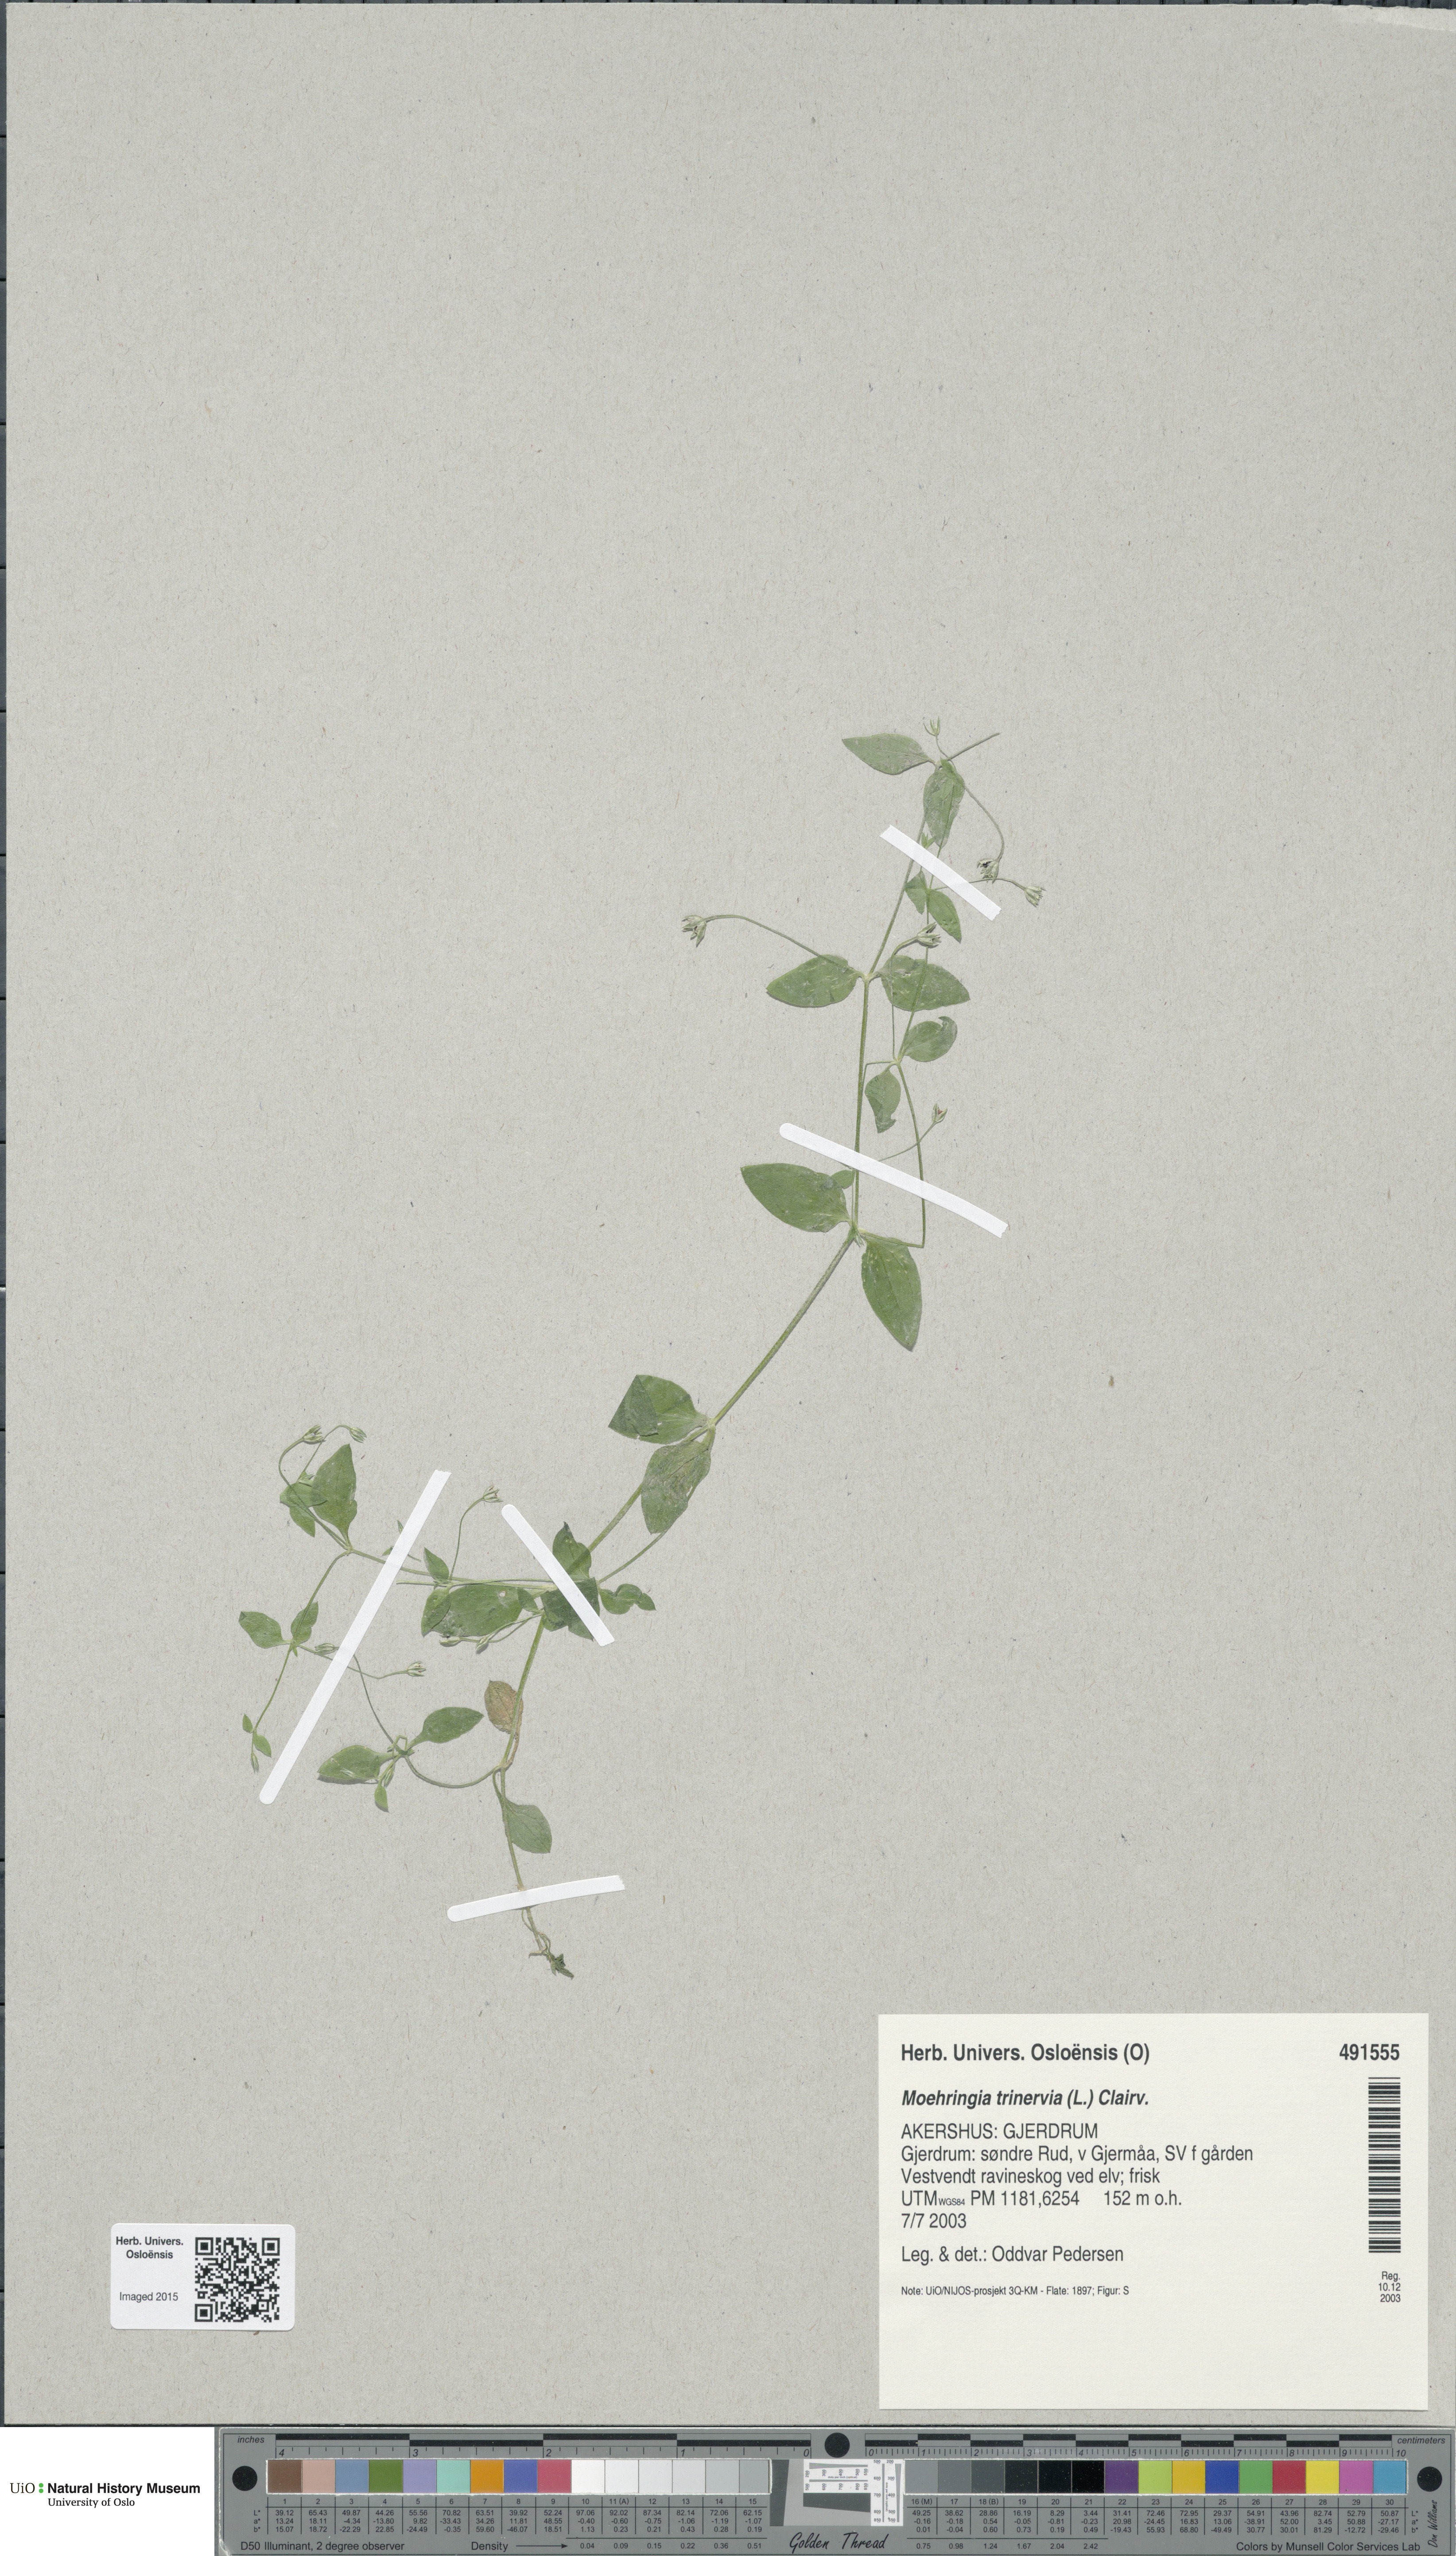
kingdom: Plantae
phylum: Tracheophyta
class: Magnoliopsida
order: Caryophyllales
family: Caryophyllaceae
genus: Moehringia
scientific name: Moehringia trinervia
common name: Three-nerved sandwort
